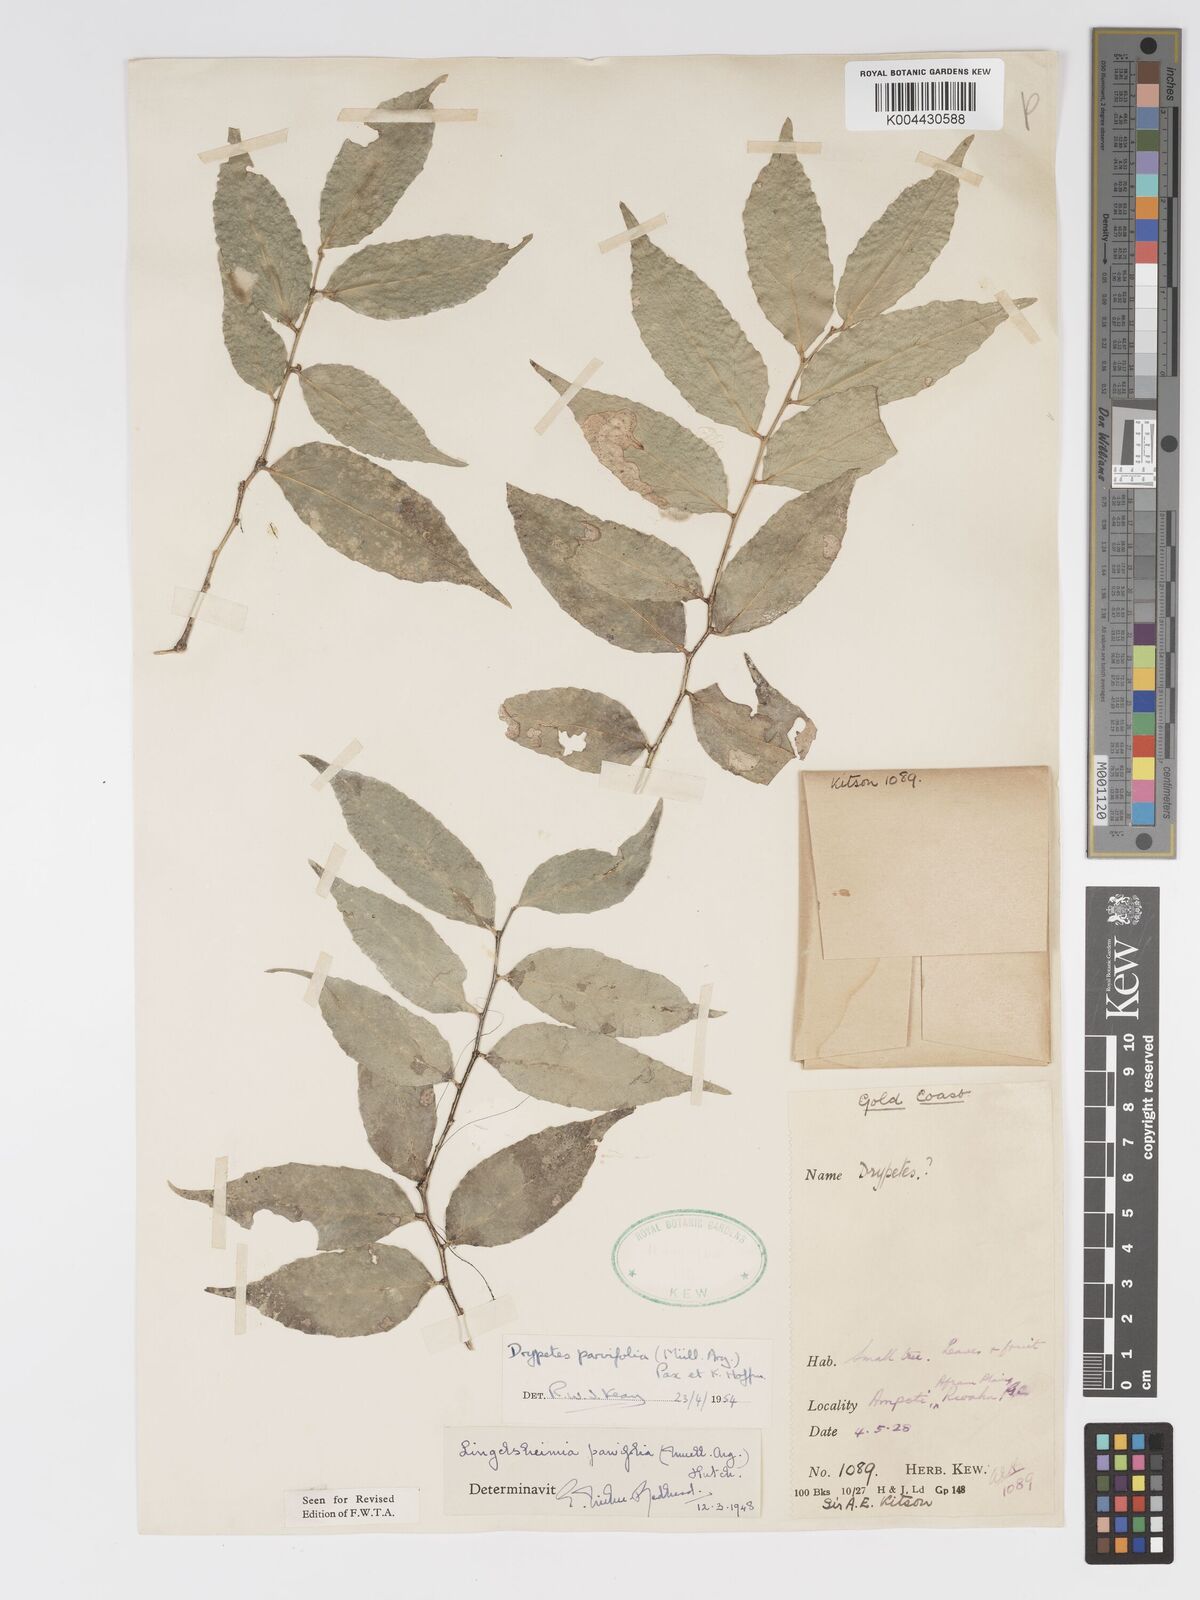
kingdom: Plantae
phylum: Tracheophyta
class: Magnoliopsida
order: Malpighiales
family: Putranjivaceae
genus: Drypetes
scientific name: Drypetes parvifolia
